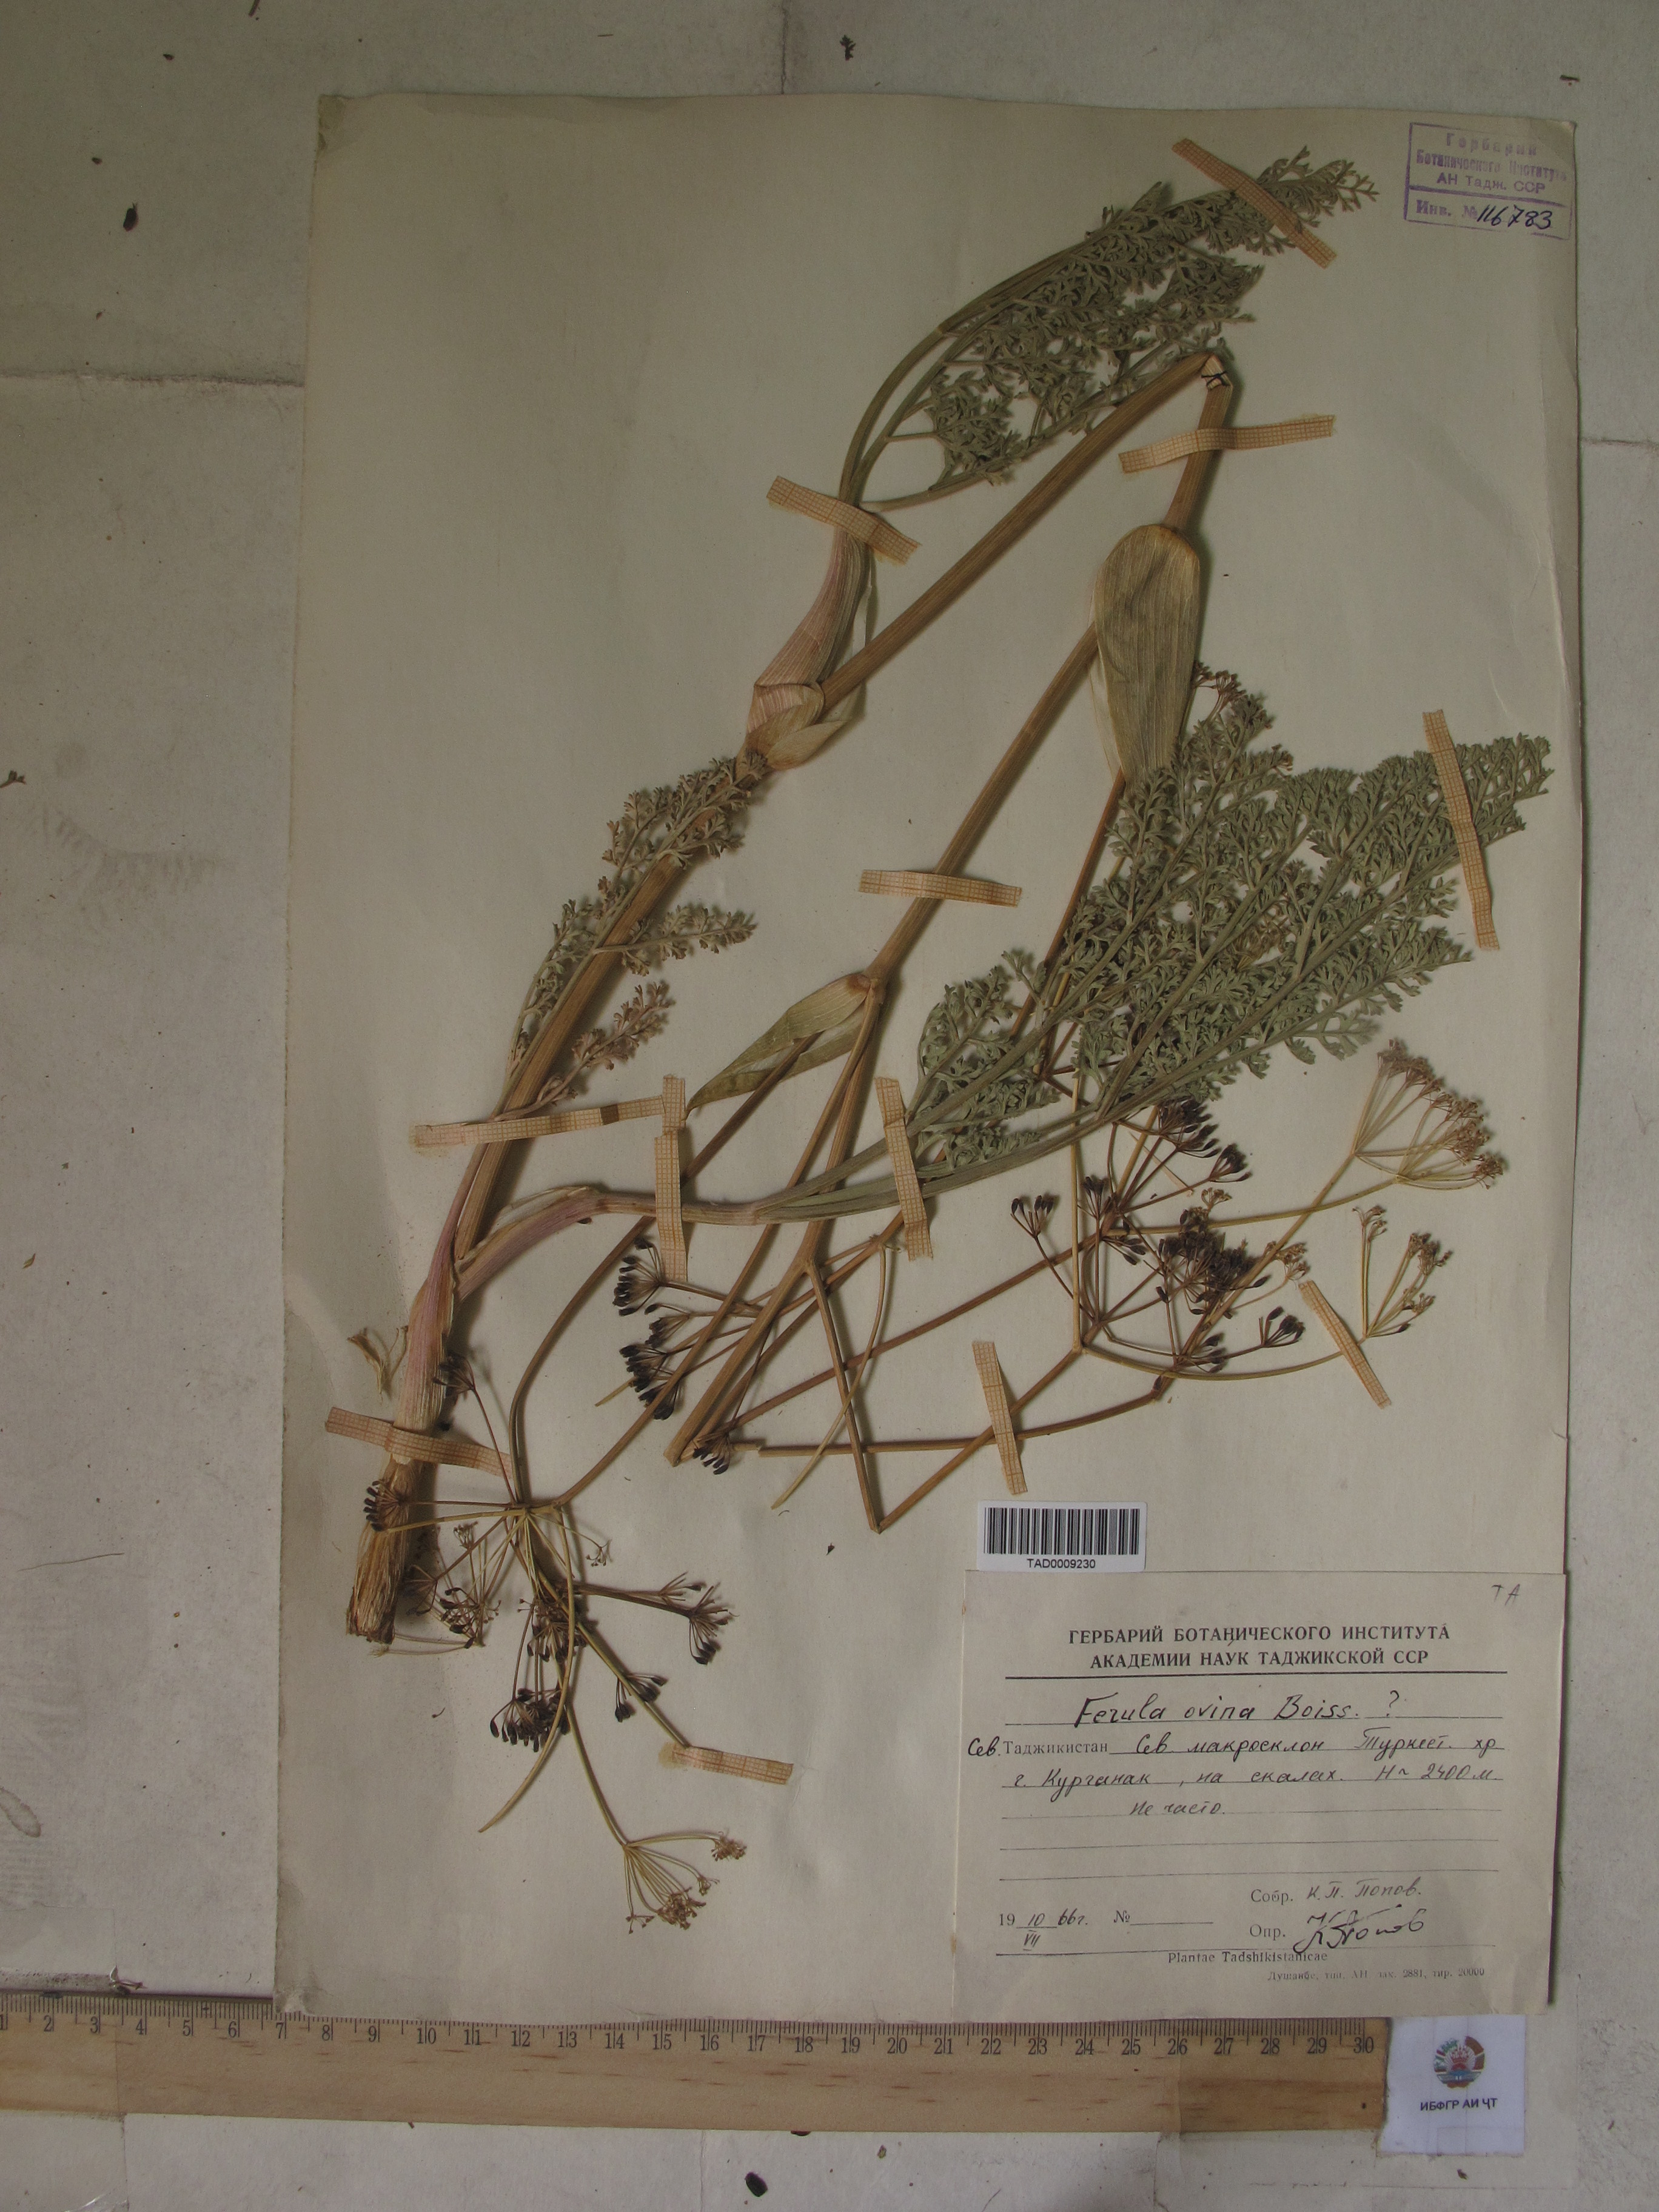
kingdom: Plantae
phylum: Tracheophyta
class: Magnoliopsida
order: Apiales
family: Apiaceae
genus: Ferula
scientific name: Ferula ovina
